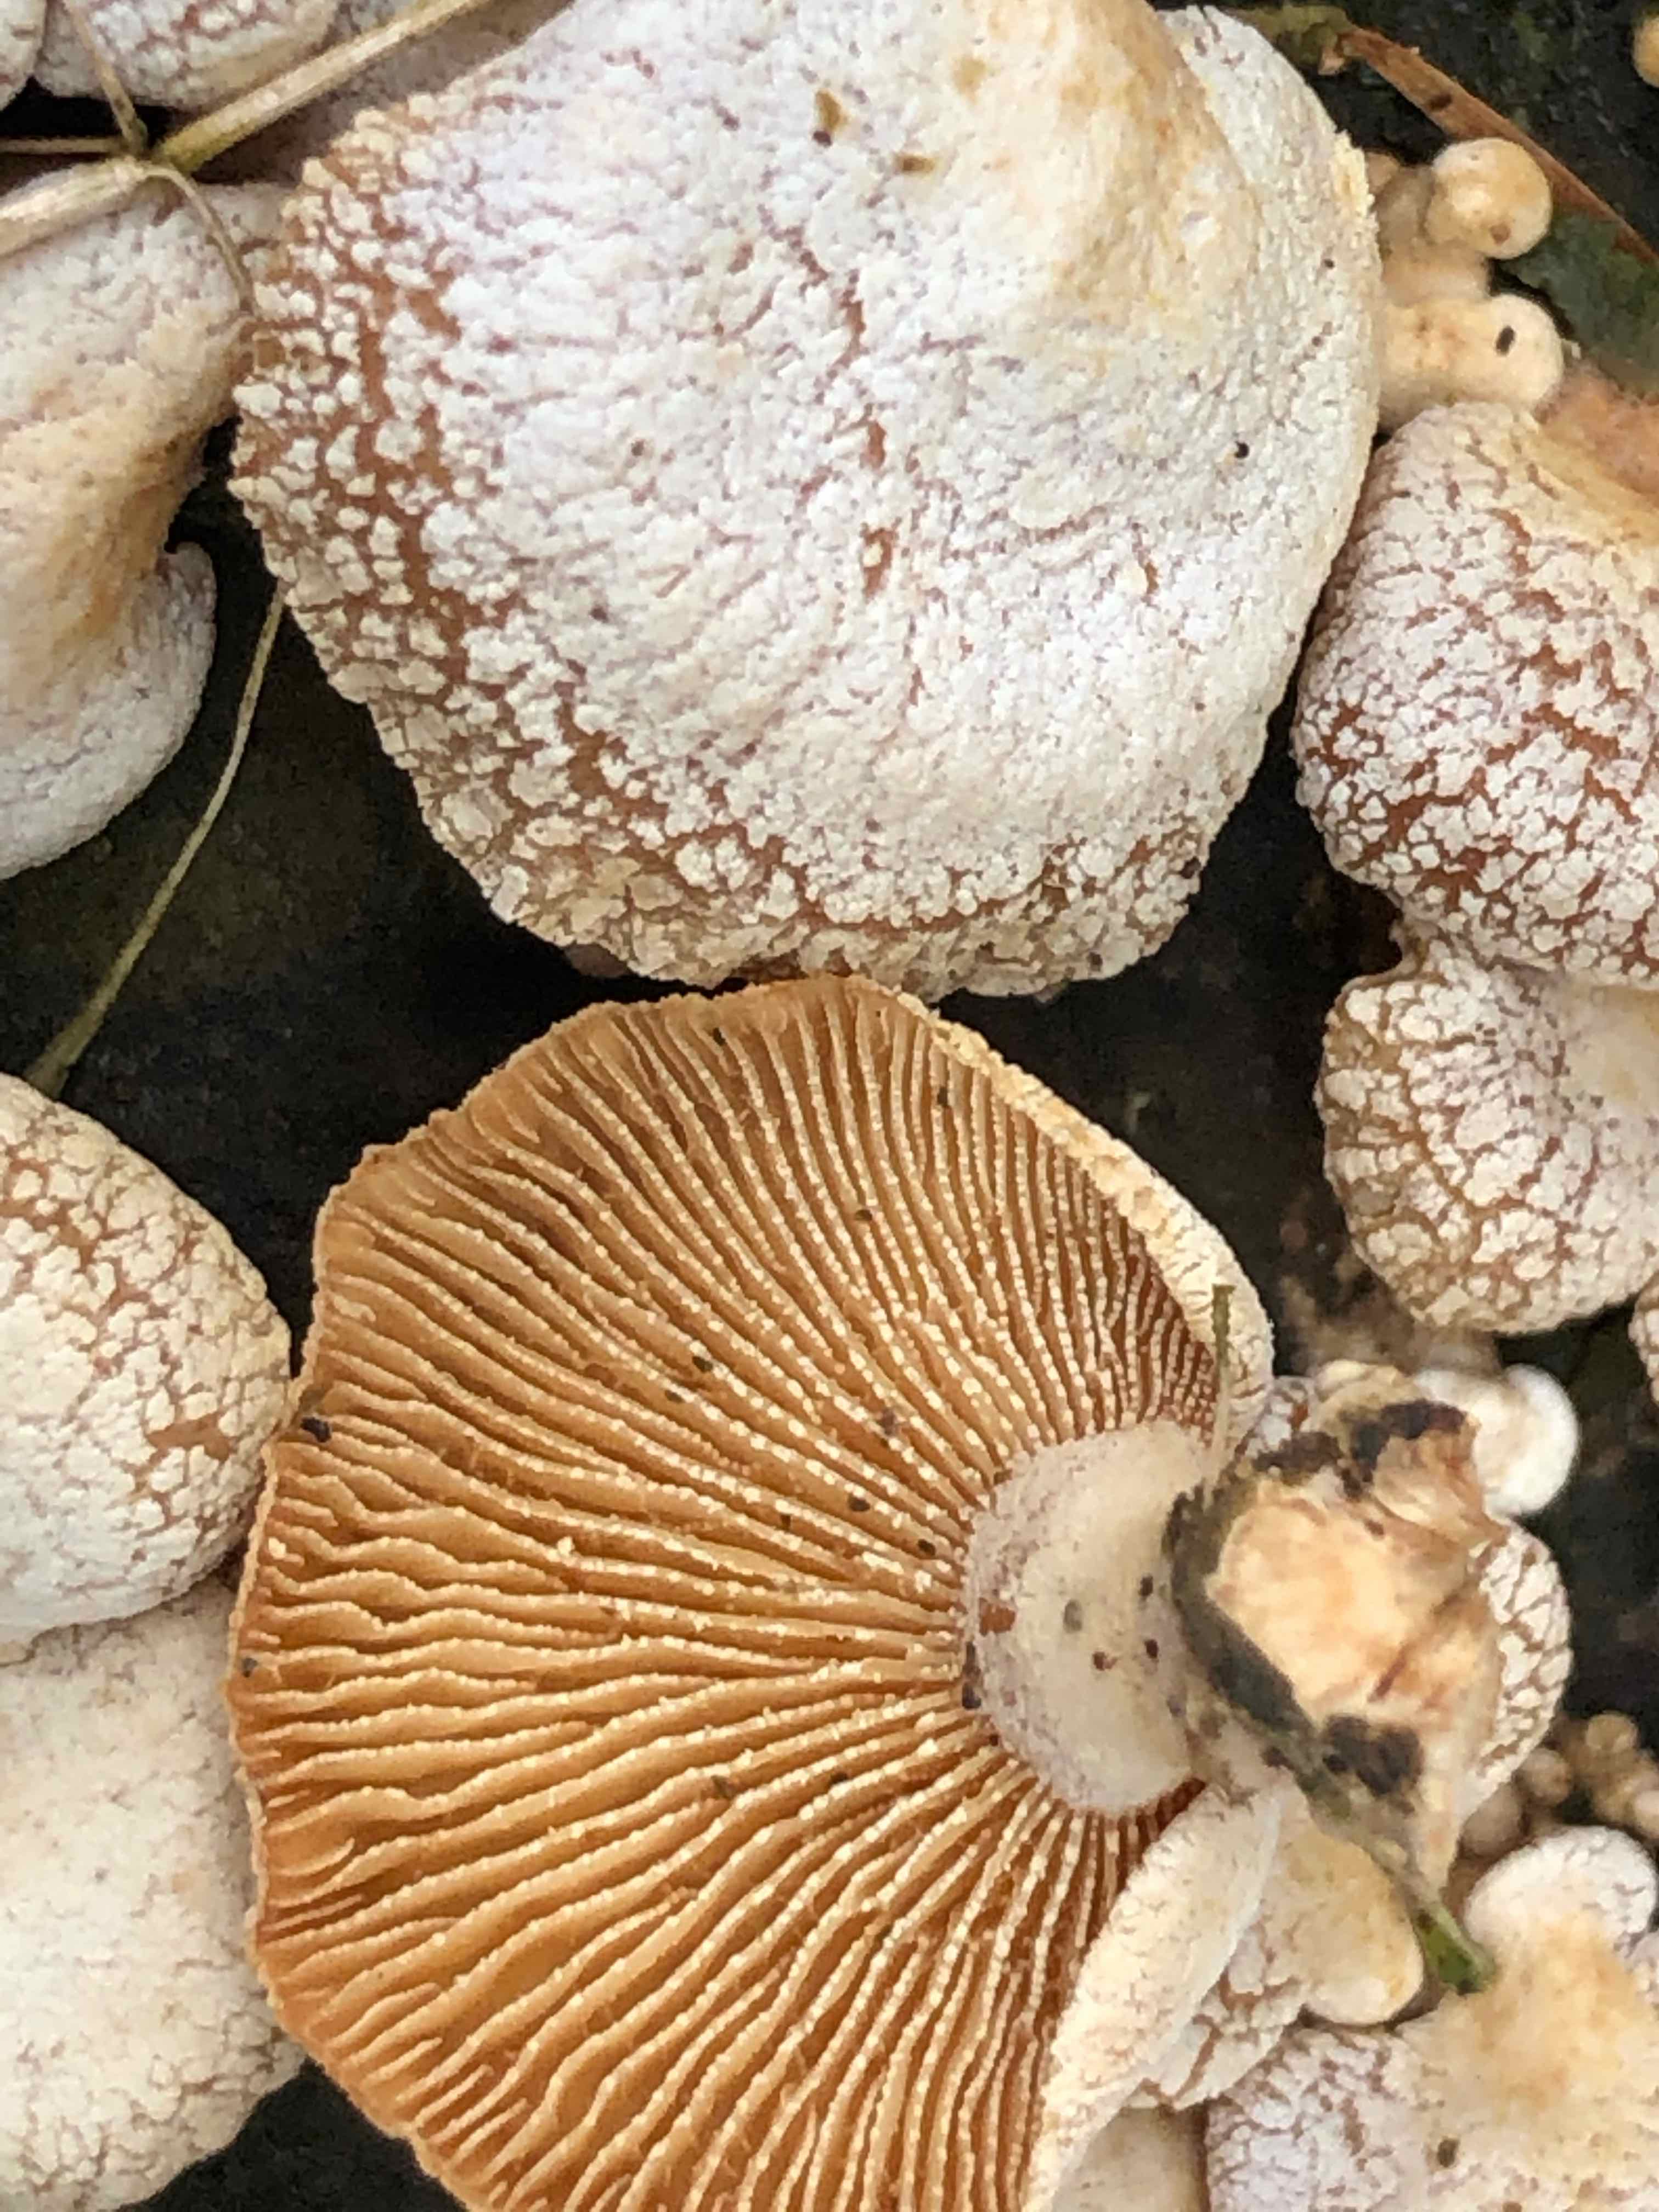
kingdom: Fungi
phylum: Basidiomycota
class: Agaricomycetes
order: Agaricales
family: Mycenaceae
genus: Panellus
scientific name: Panellus stipticus
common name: kliddet epaulethat
